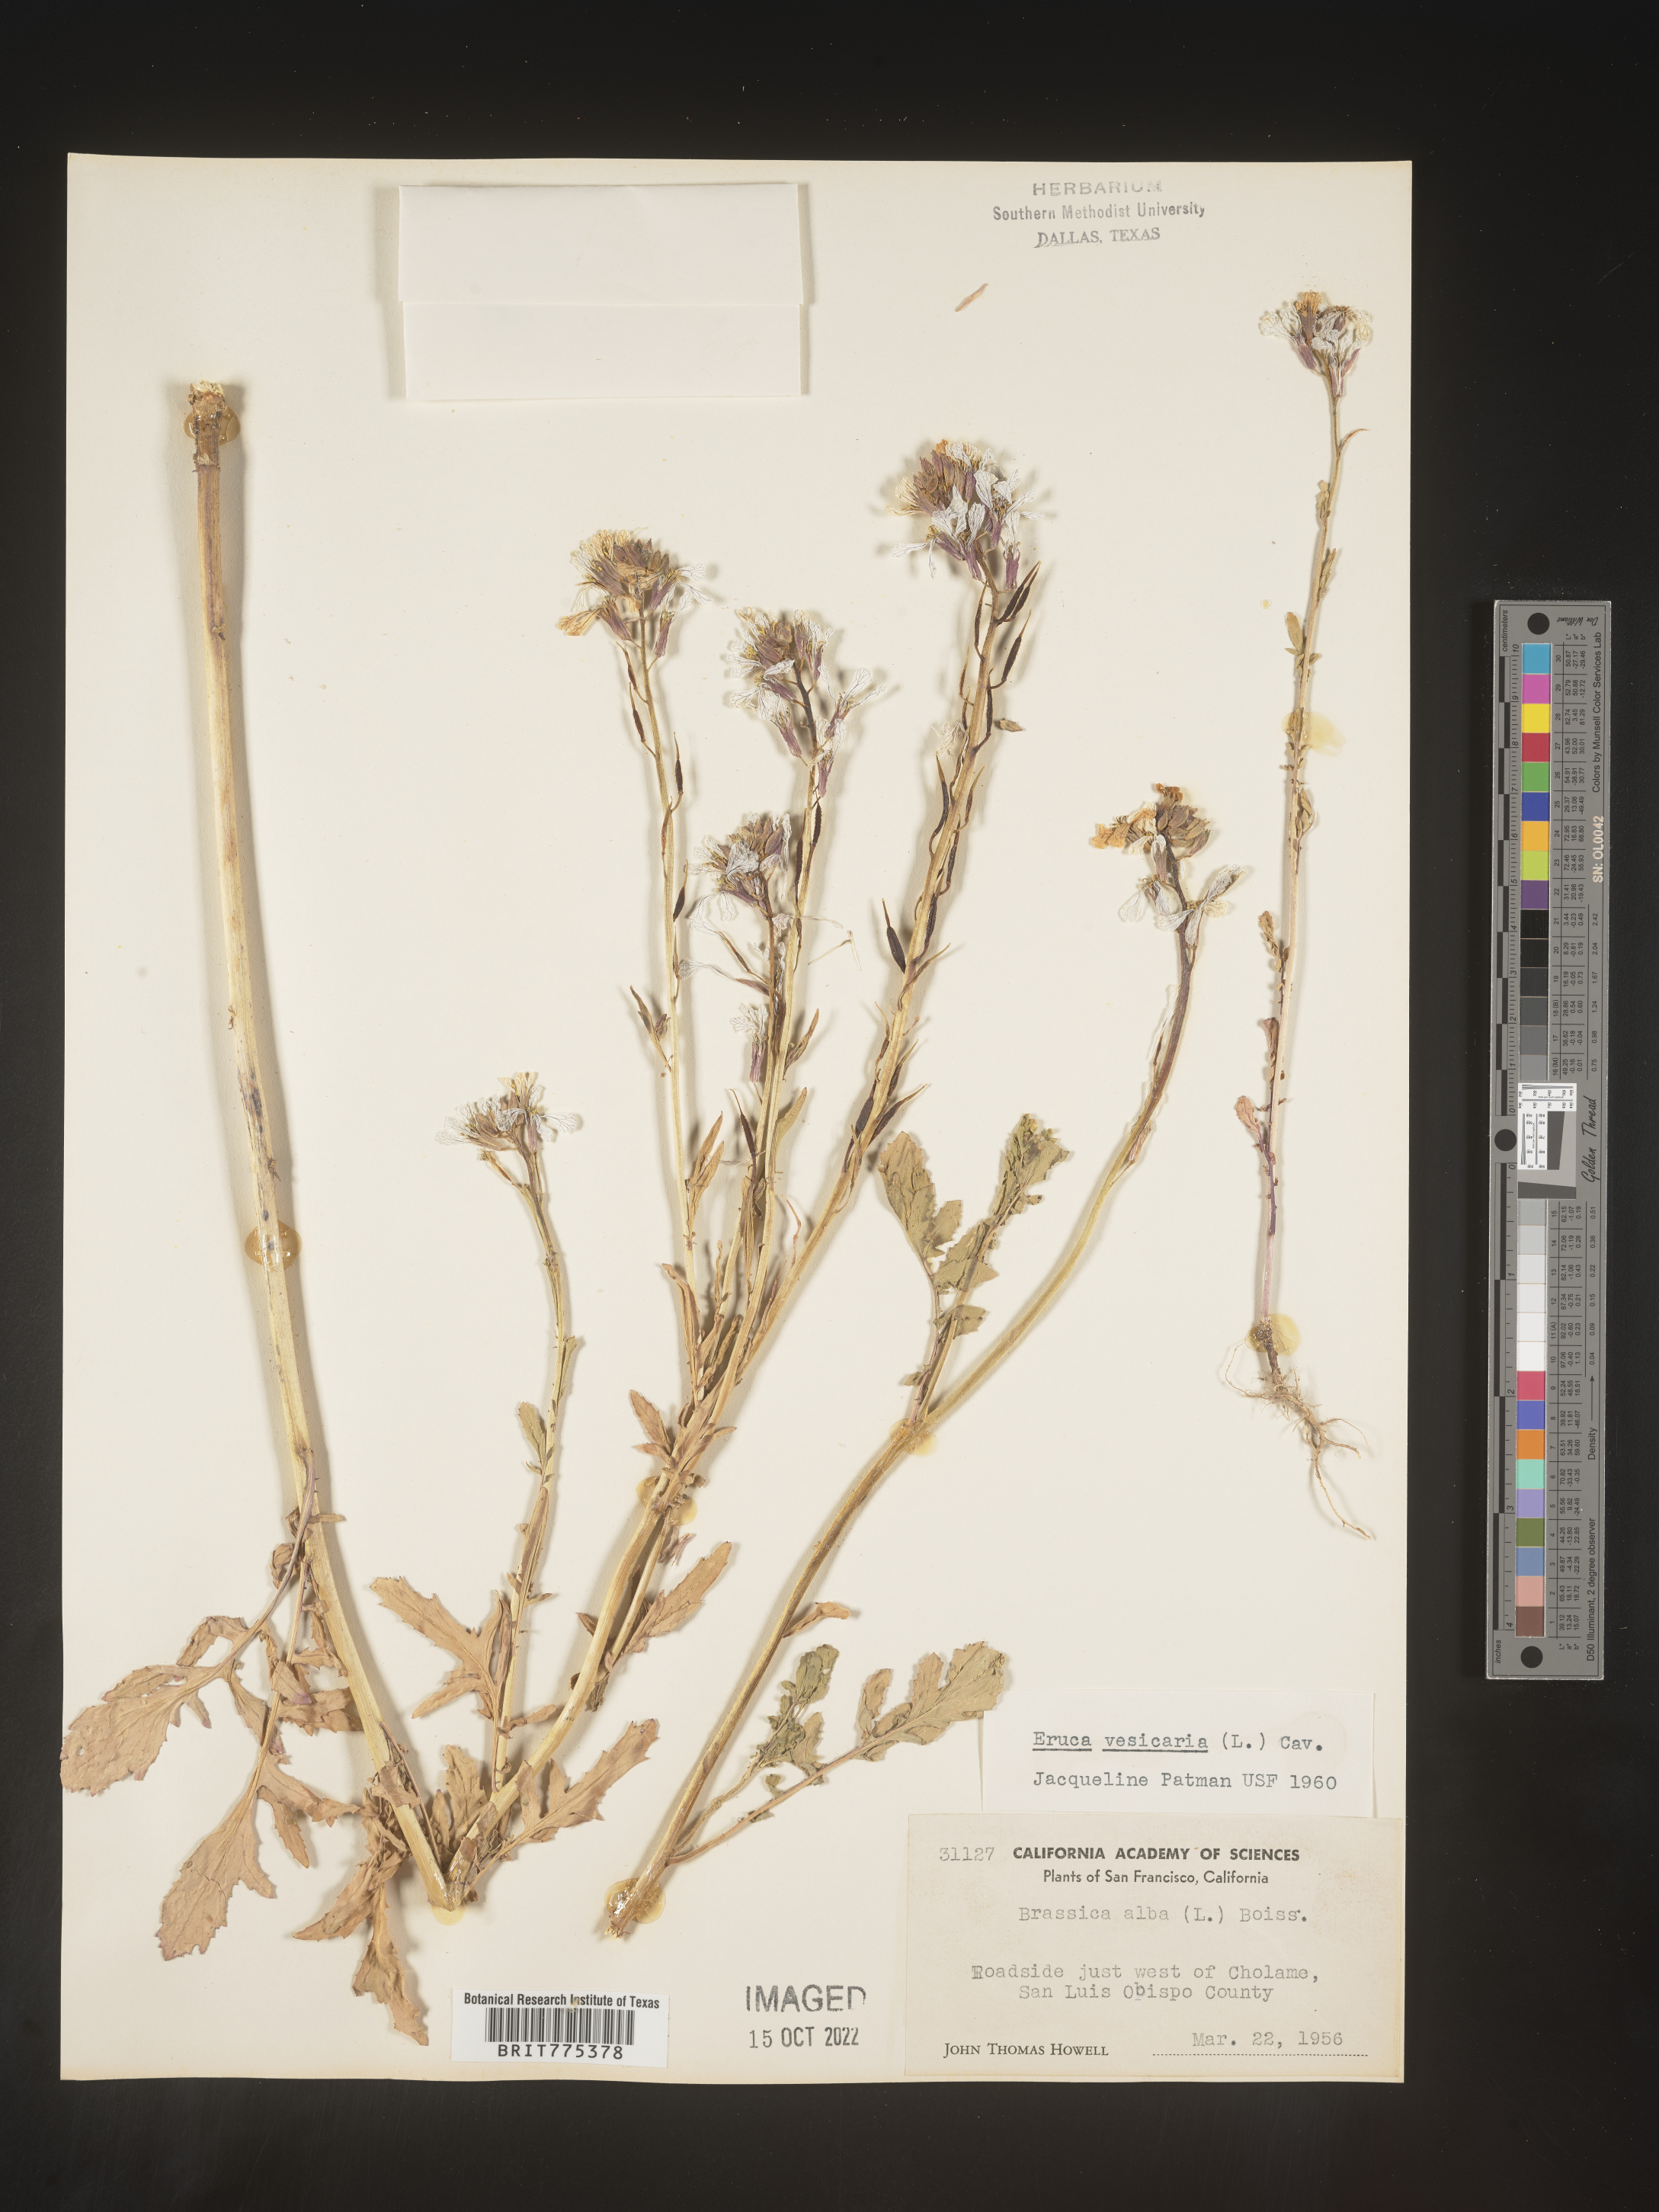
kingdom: Plantae
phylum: Tracheophyta
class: Magnoliopsida
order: Brassicales
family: Brassicaceae
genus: Eruca
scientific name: Eruca
